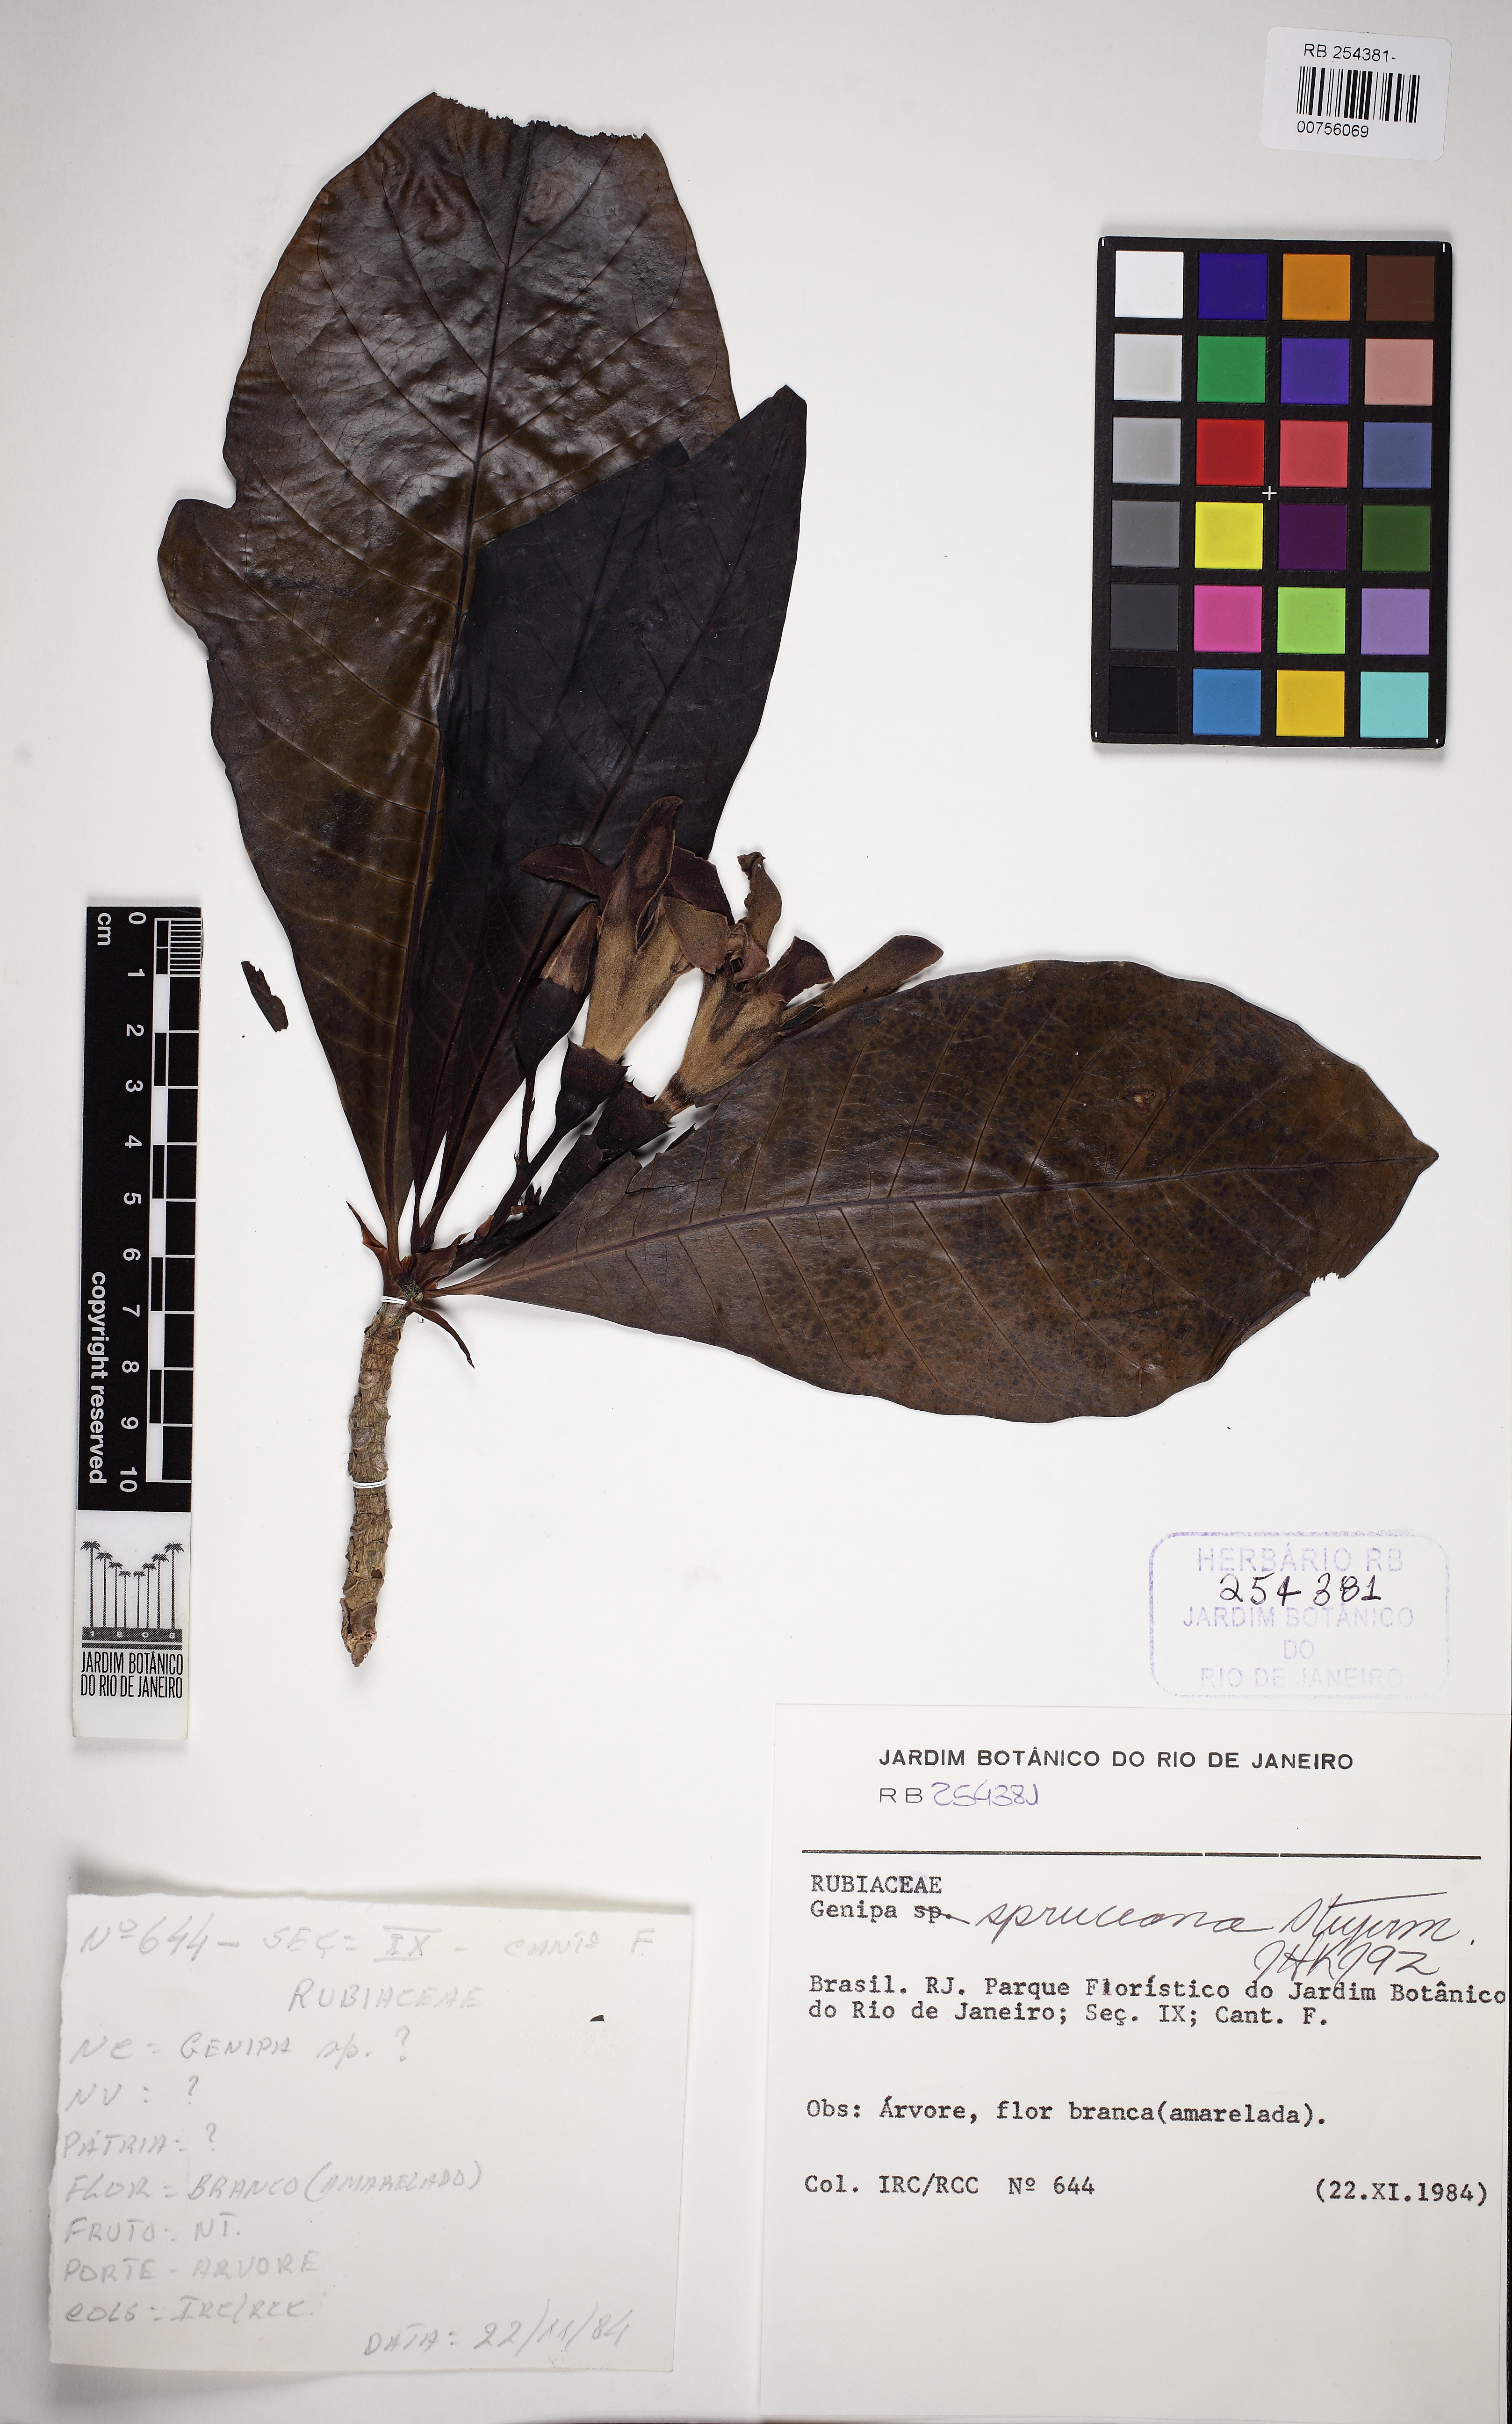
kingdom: Plantae
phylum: Tracheophyta
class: Magnoliopsida
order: Gentianales
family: Rubiaceae
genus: Genipa
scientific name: Genipa americana
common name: Genipap
